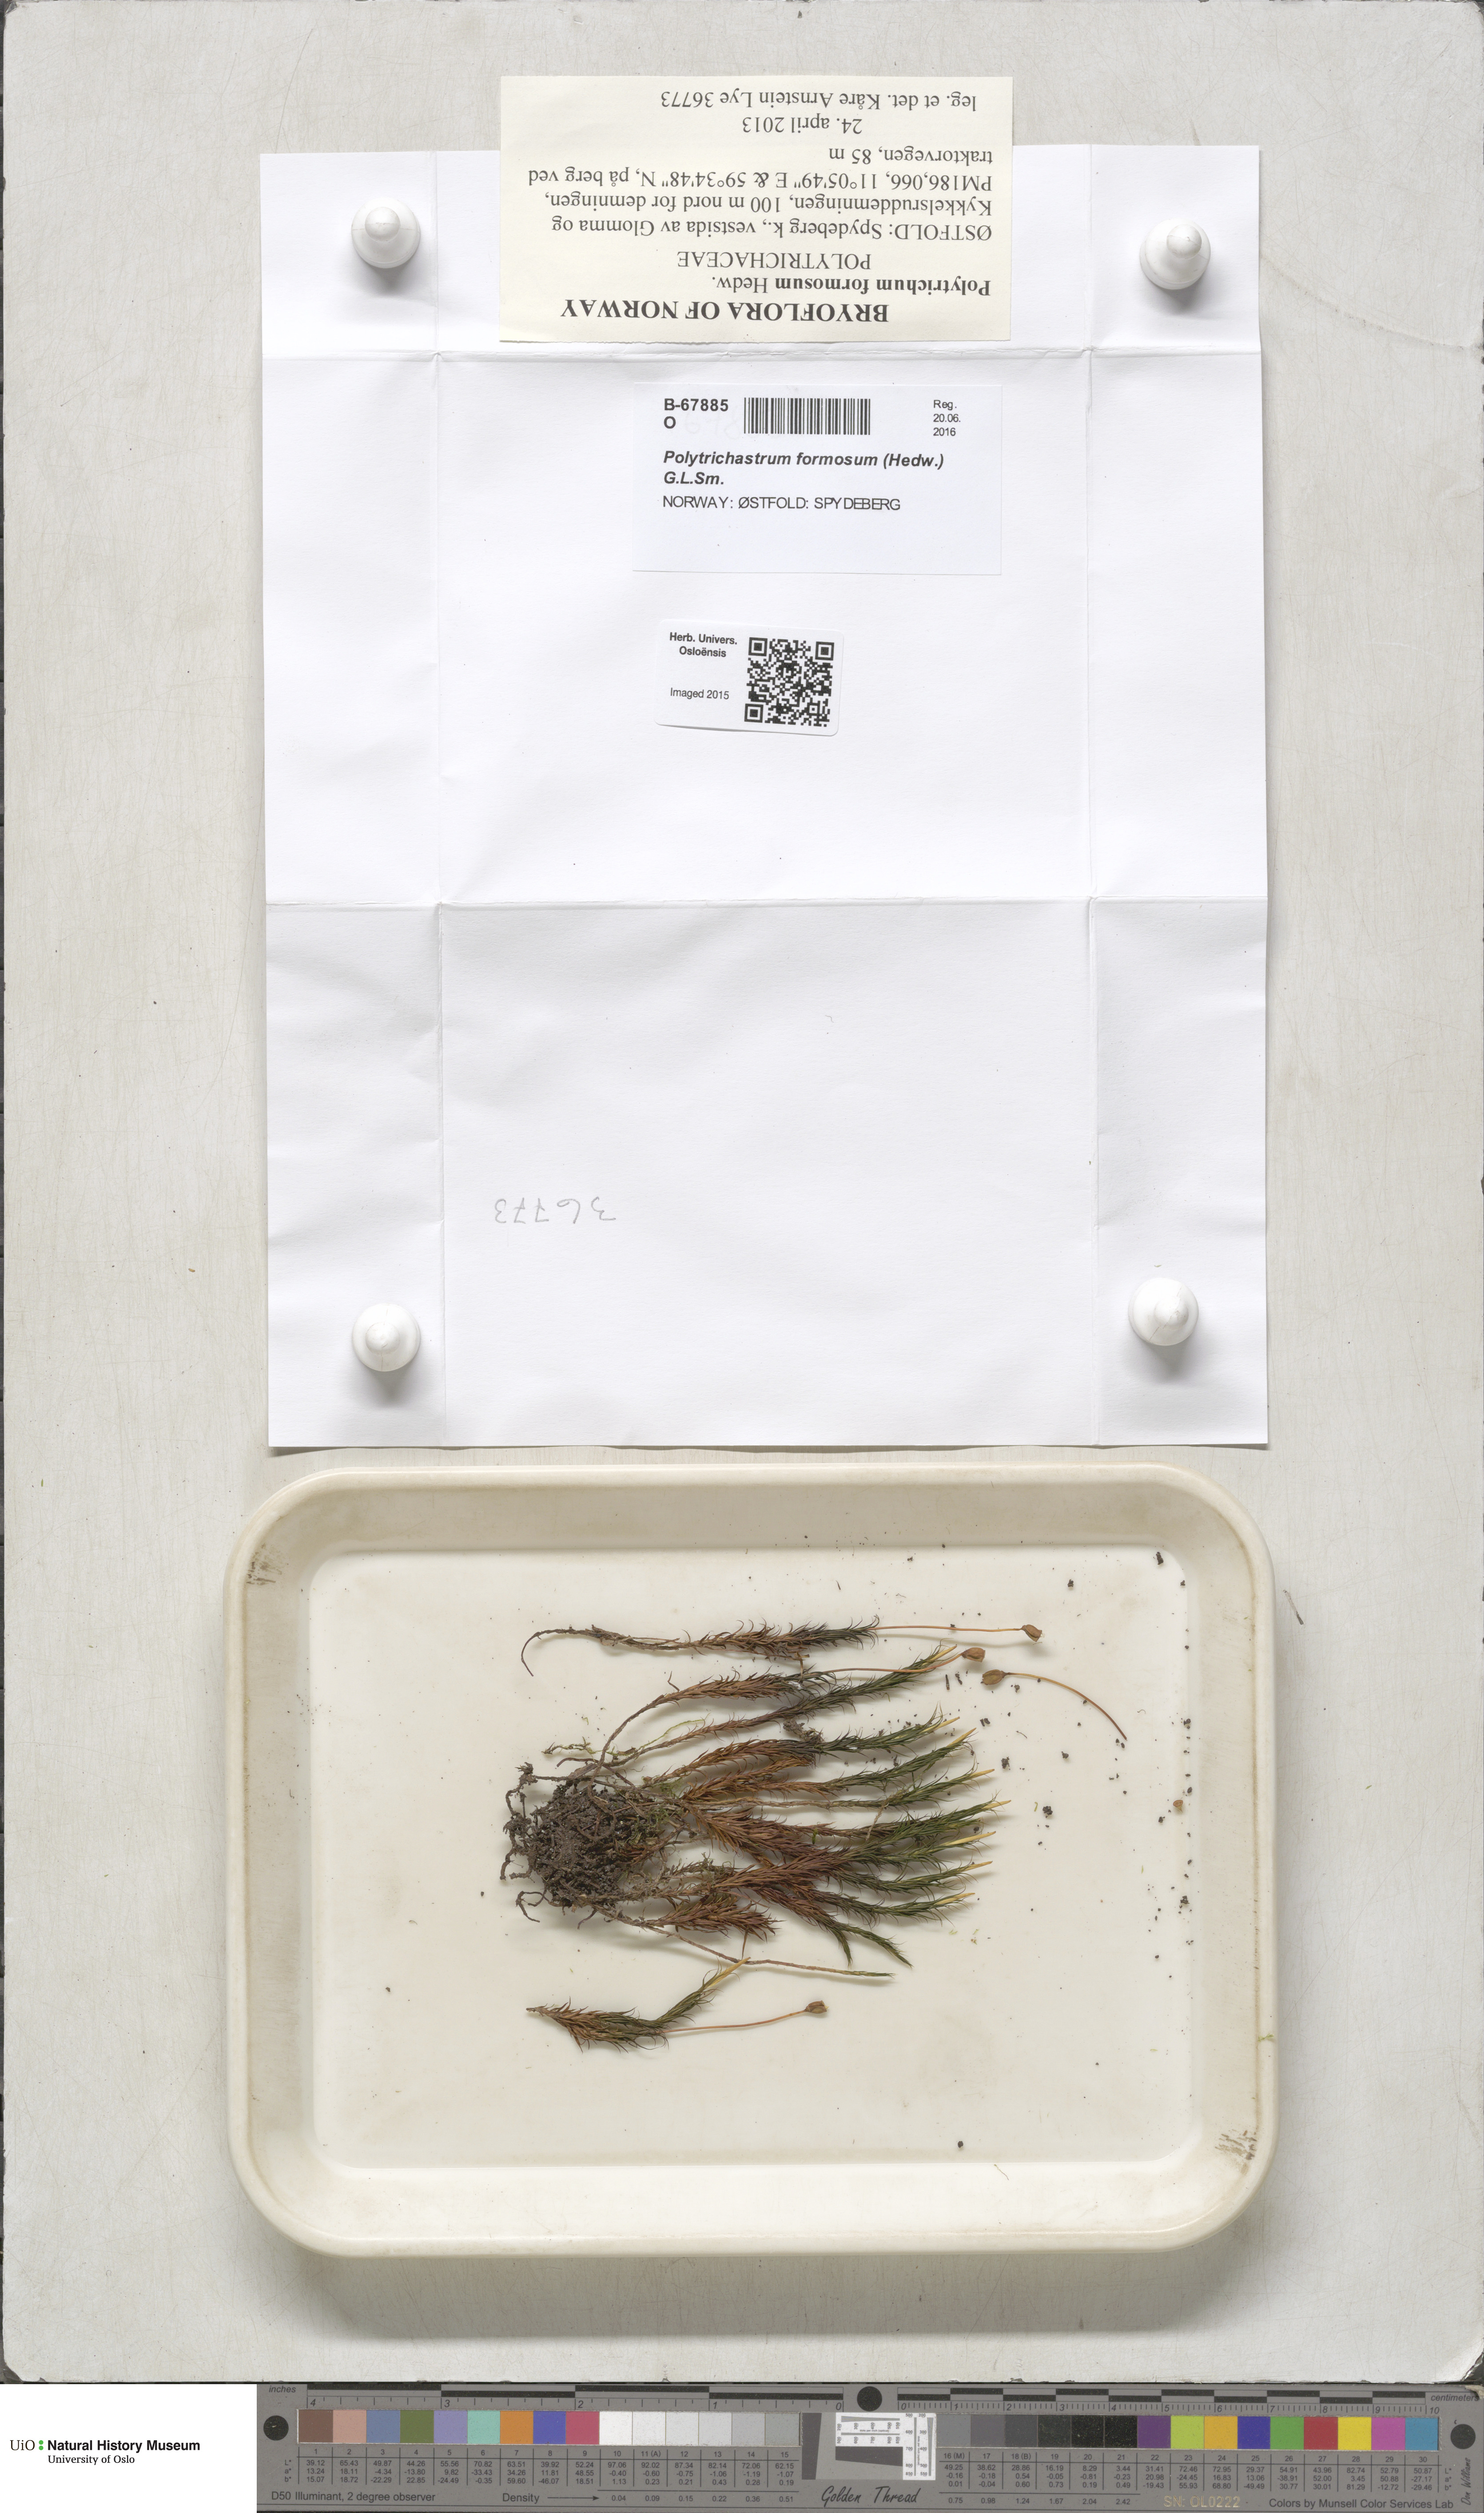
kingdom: Plantae
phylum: Bryophyta
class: Polytrichopsida
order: Polytrichales
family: Polytrichaceae
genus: Polytrichum
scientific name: Polytrichum formosum
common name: Bank haircap moss
